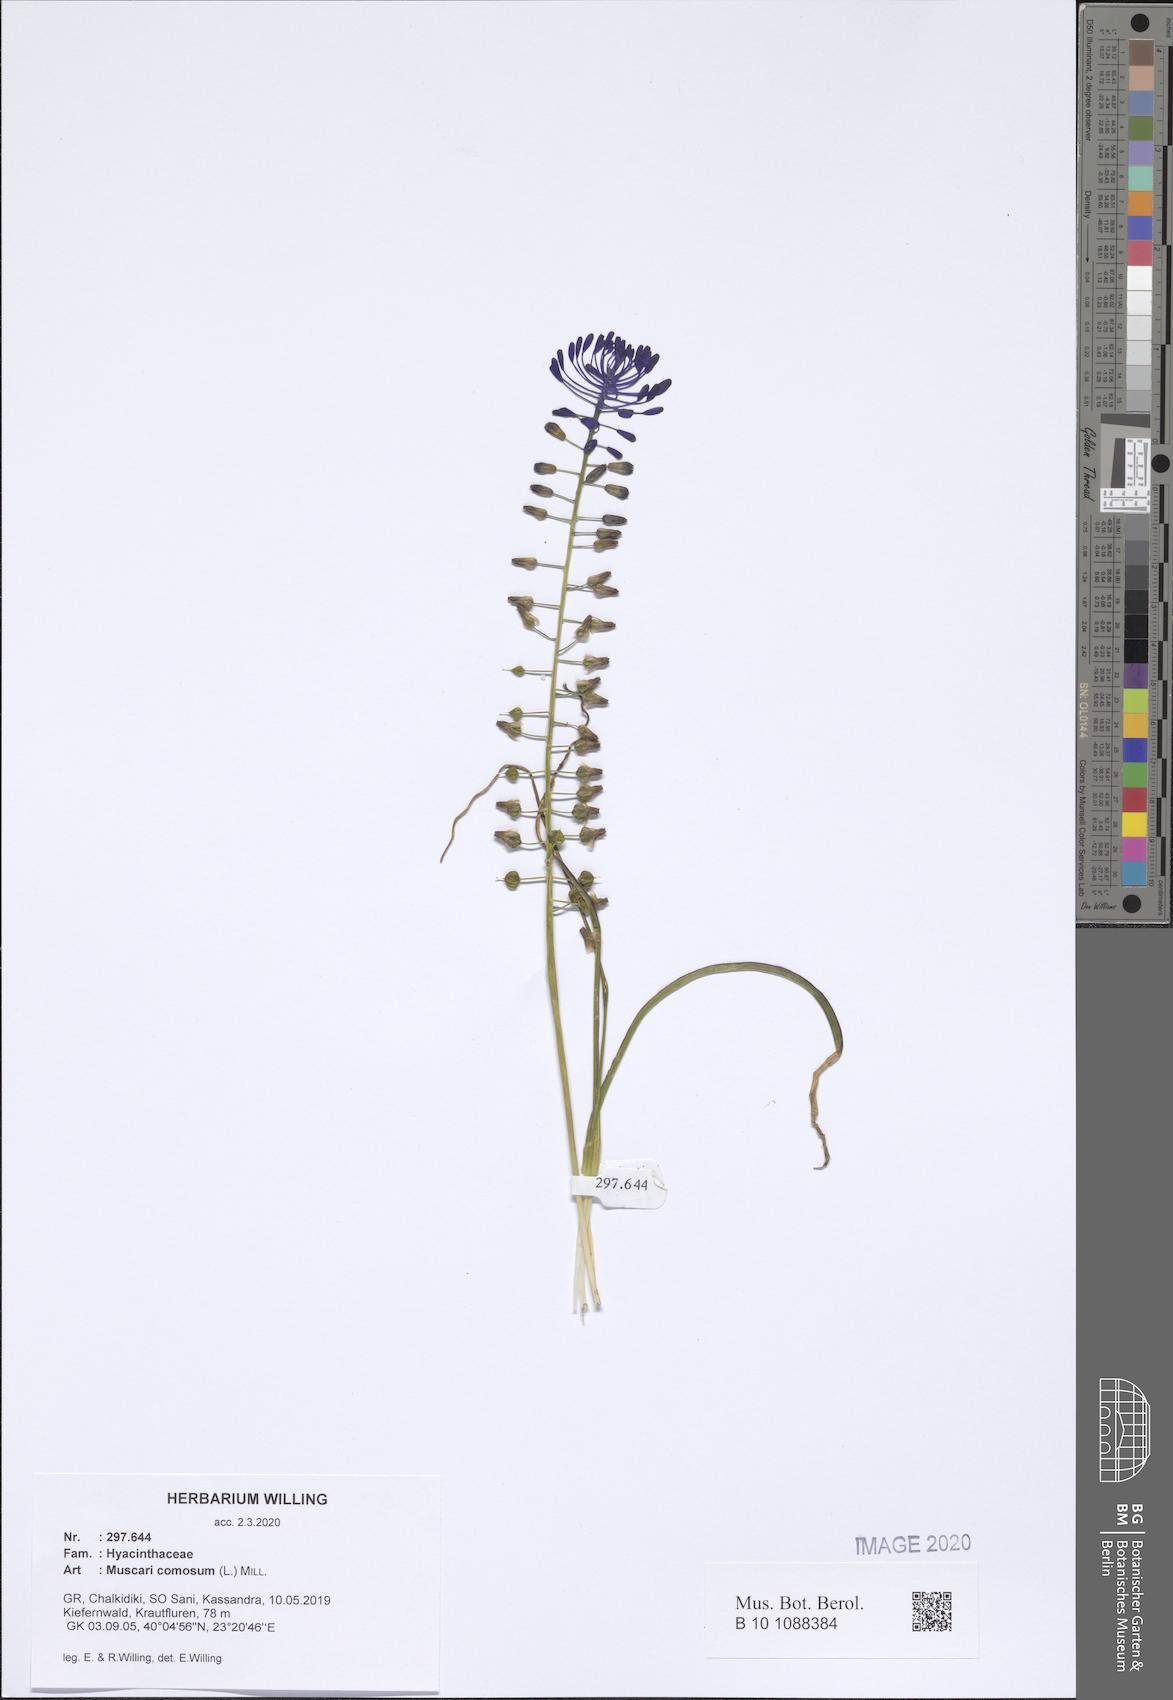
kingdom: Plantae
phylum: Tracheophyta
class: Liliopsida
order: Asparagales
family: Asparagaceae
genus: Muscari
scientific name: Muscari comosum
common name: Tassel hyacinth
